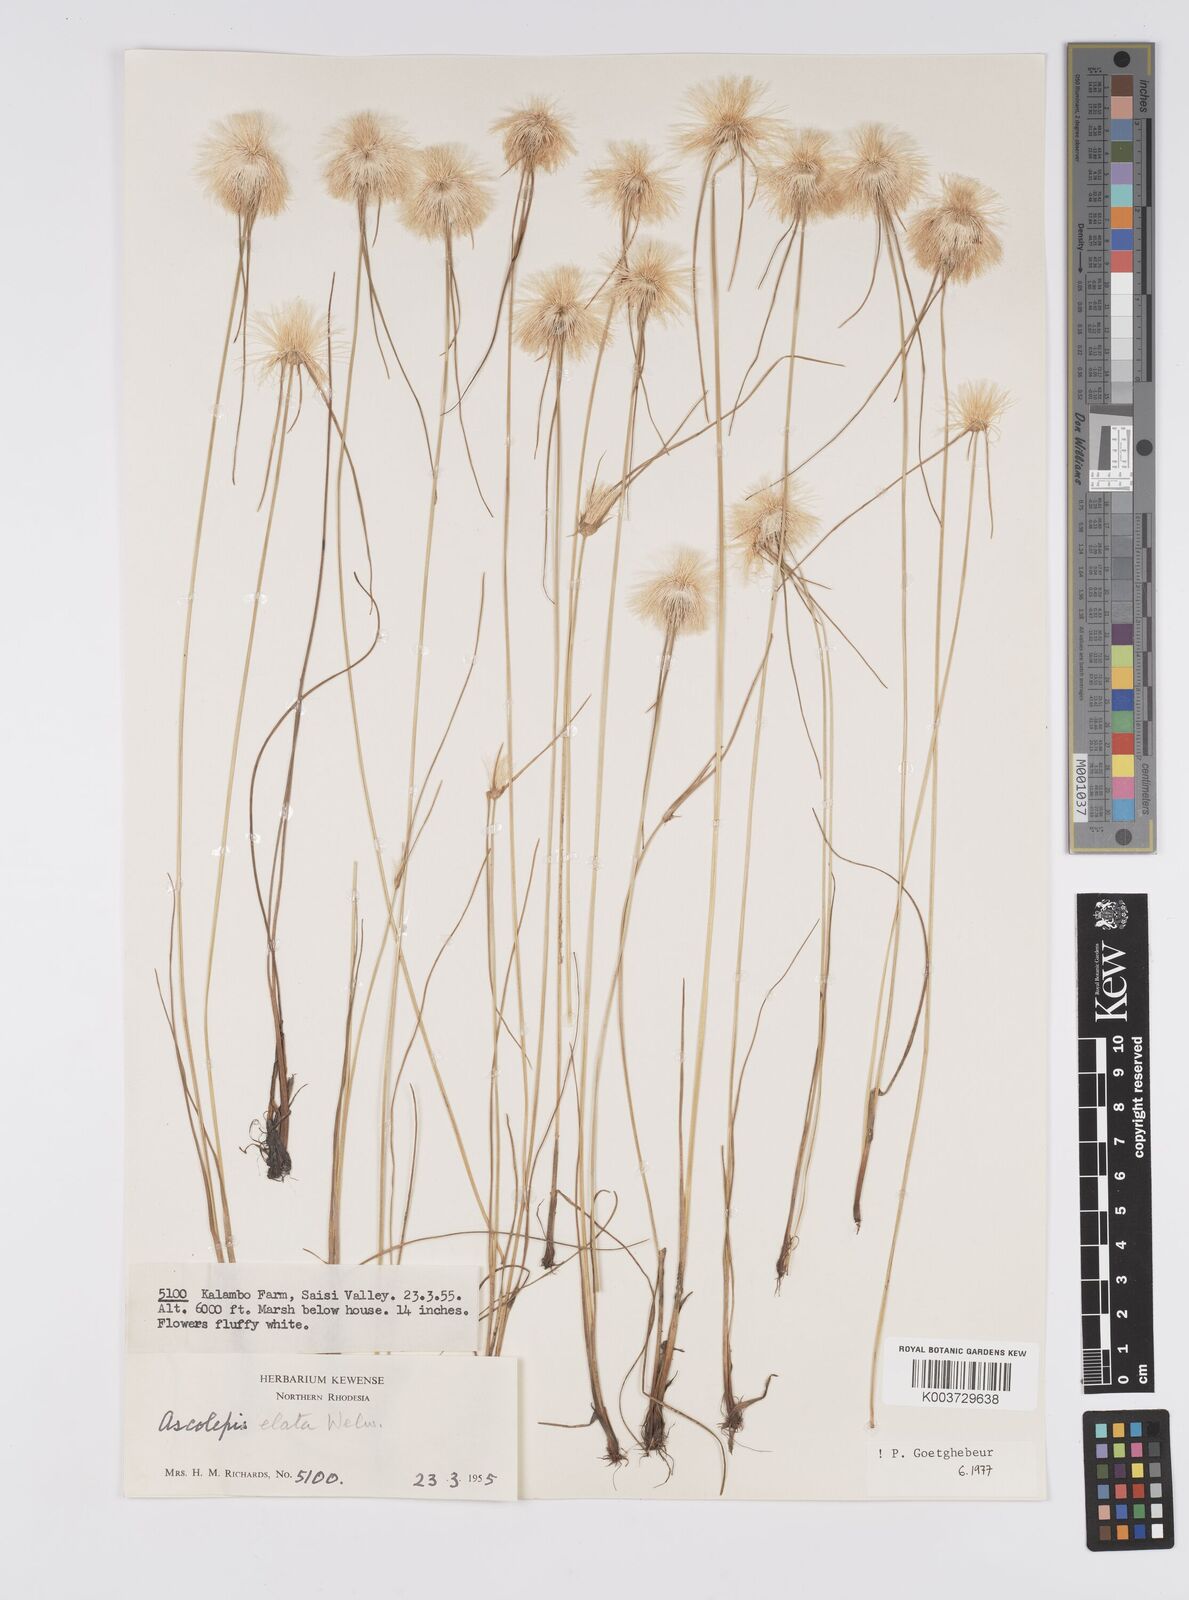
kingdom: Plantae
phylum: Tracheophyta
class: Liliopsida
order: Poales
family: Cyperaceae
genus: Cyperus
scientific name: Cyperus
